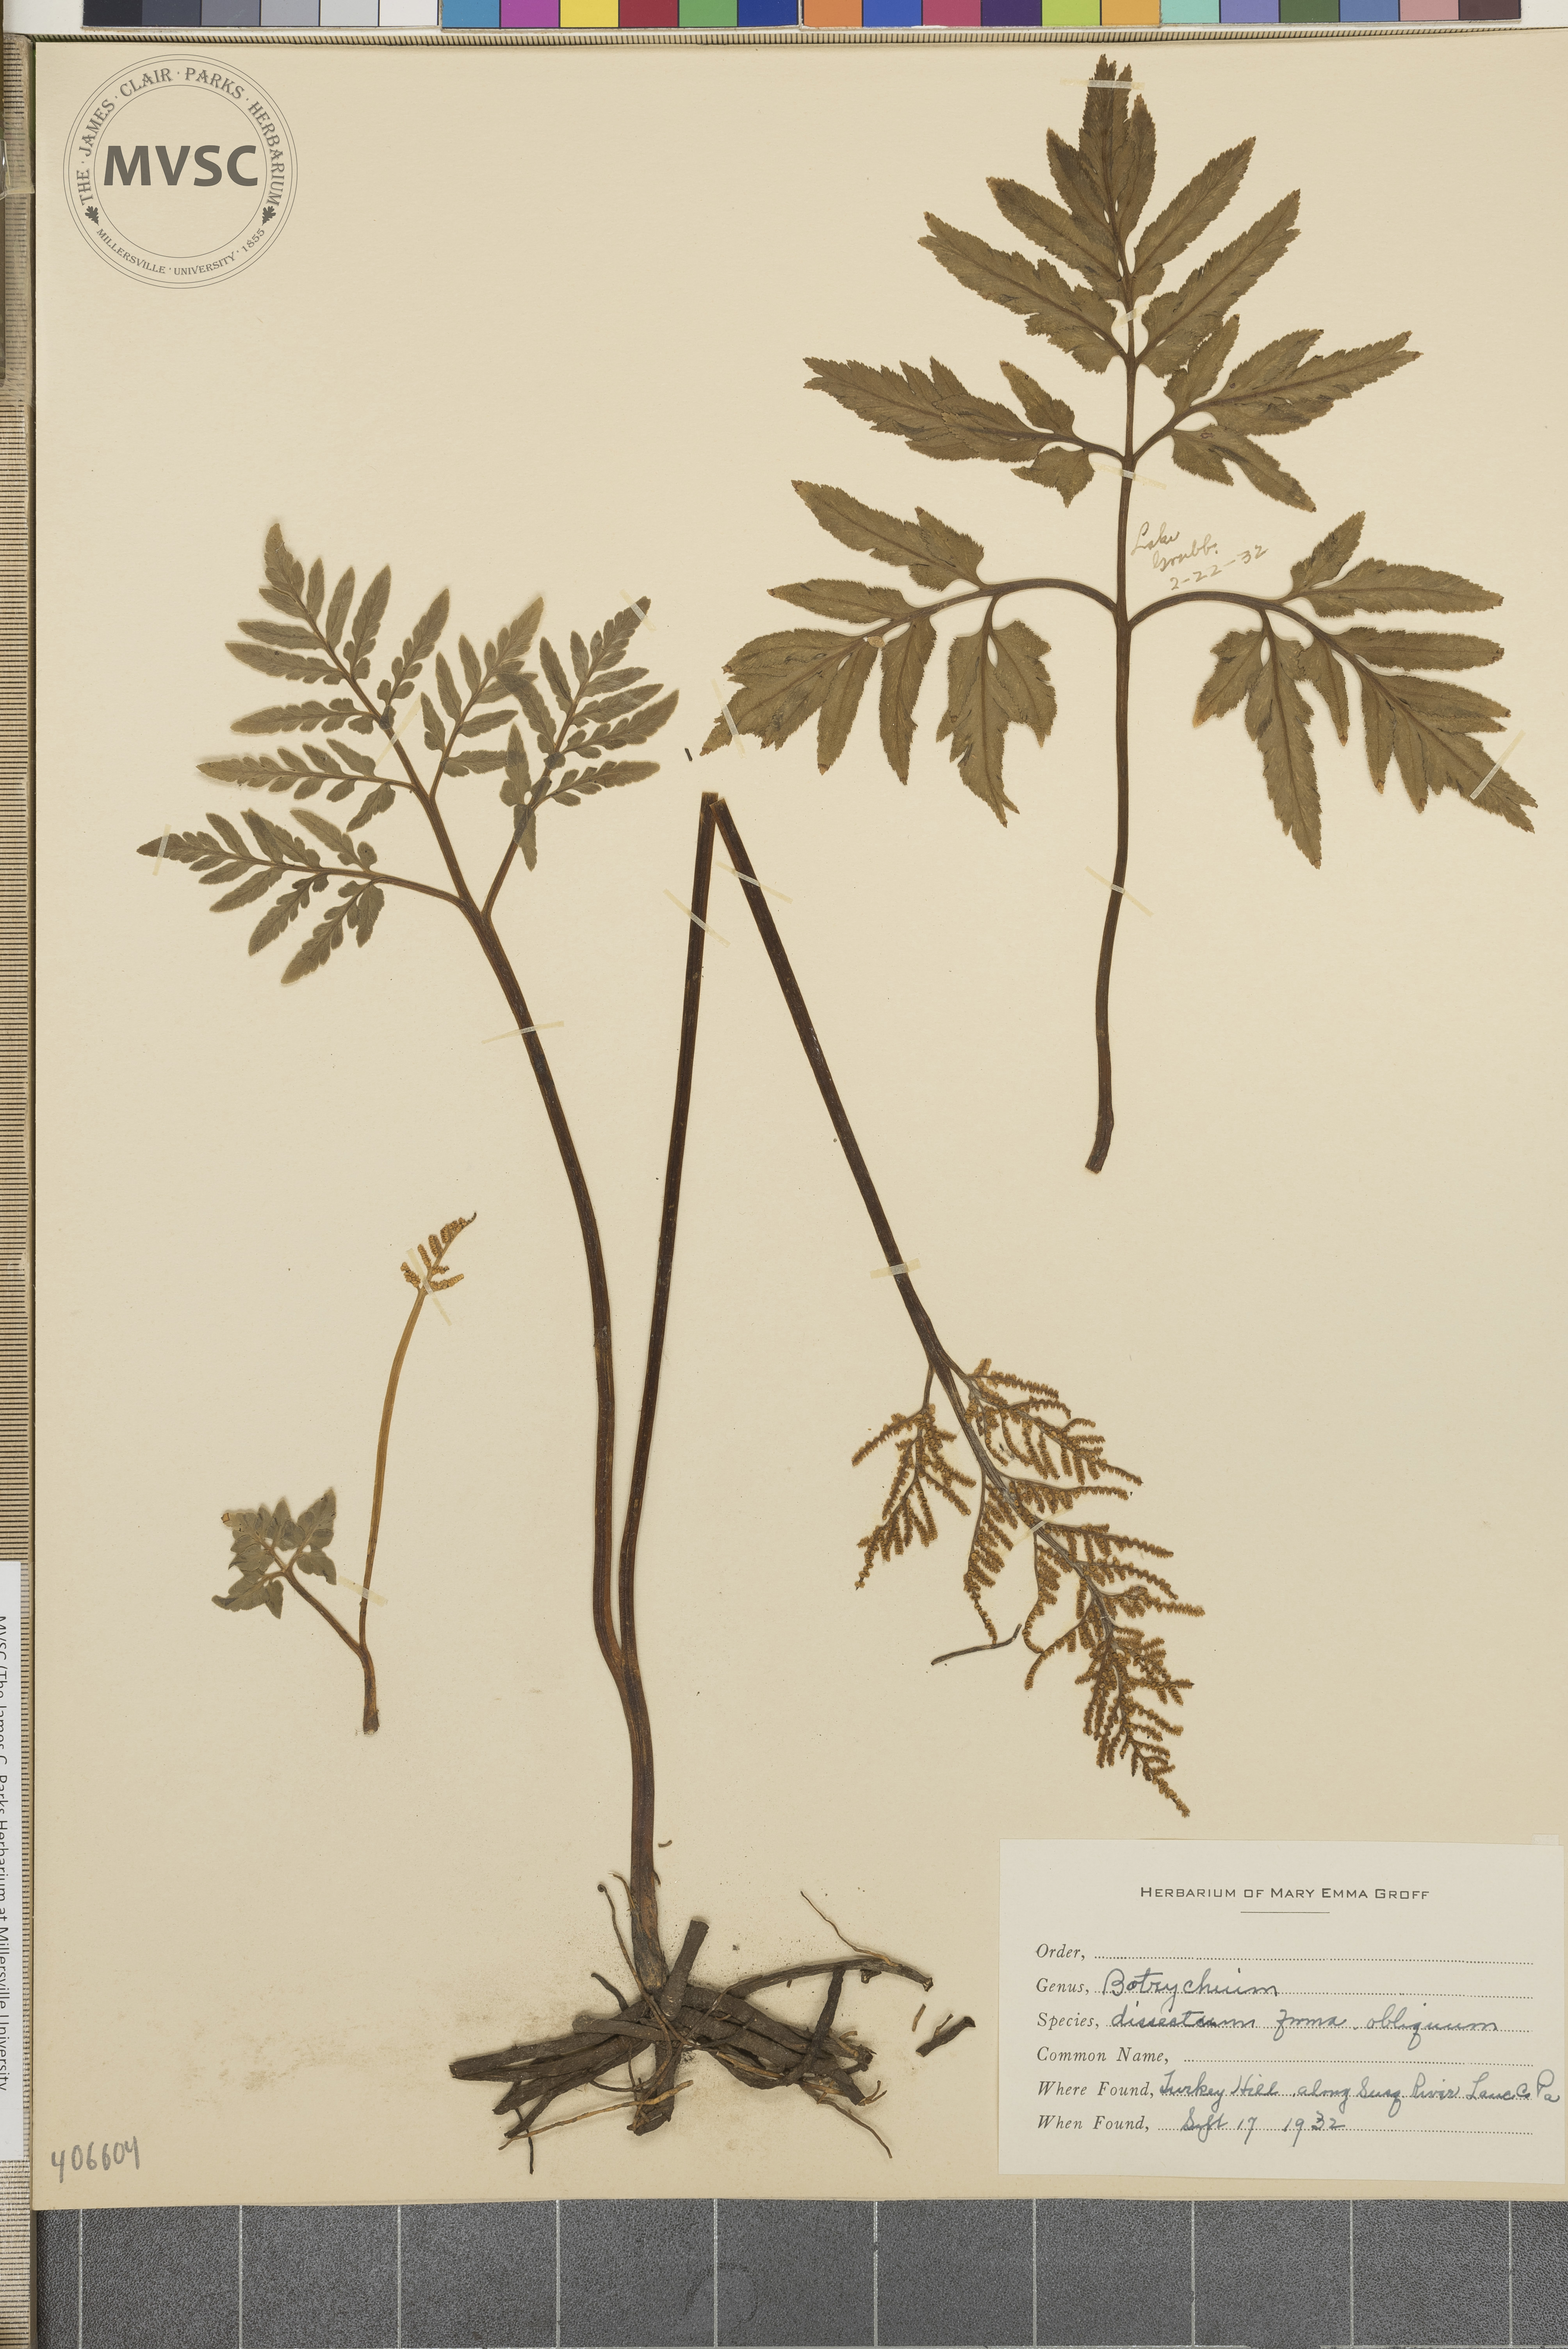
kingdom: Plantae
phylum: Tracheophyta
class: Polypodiopsida
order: Ophioglossales
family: Ophioglossaceae
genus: Sceptridium
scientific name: Sceptridium dissectum
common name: Cut-leaved grapefern
